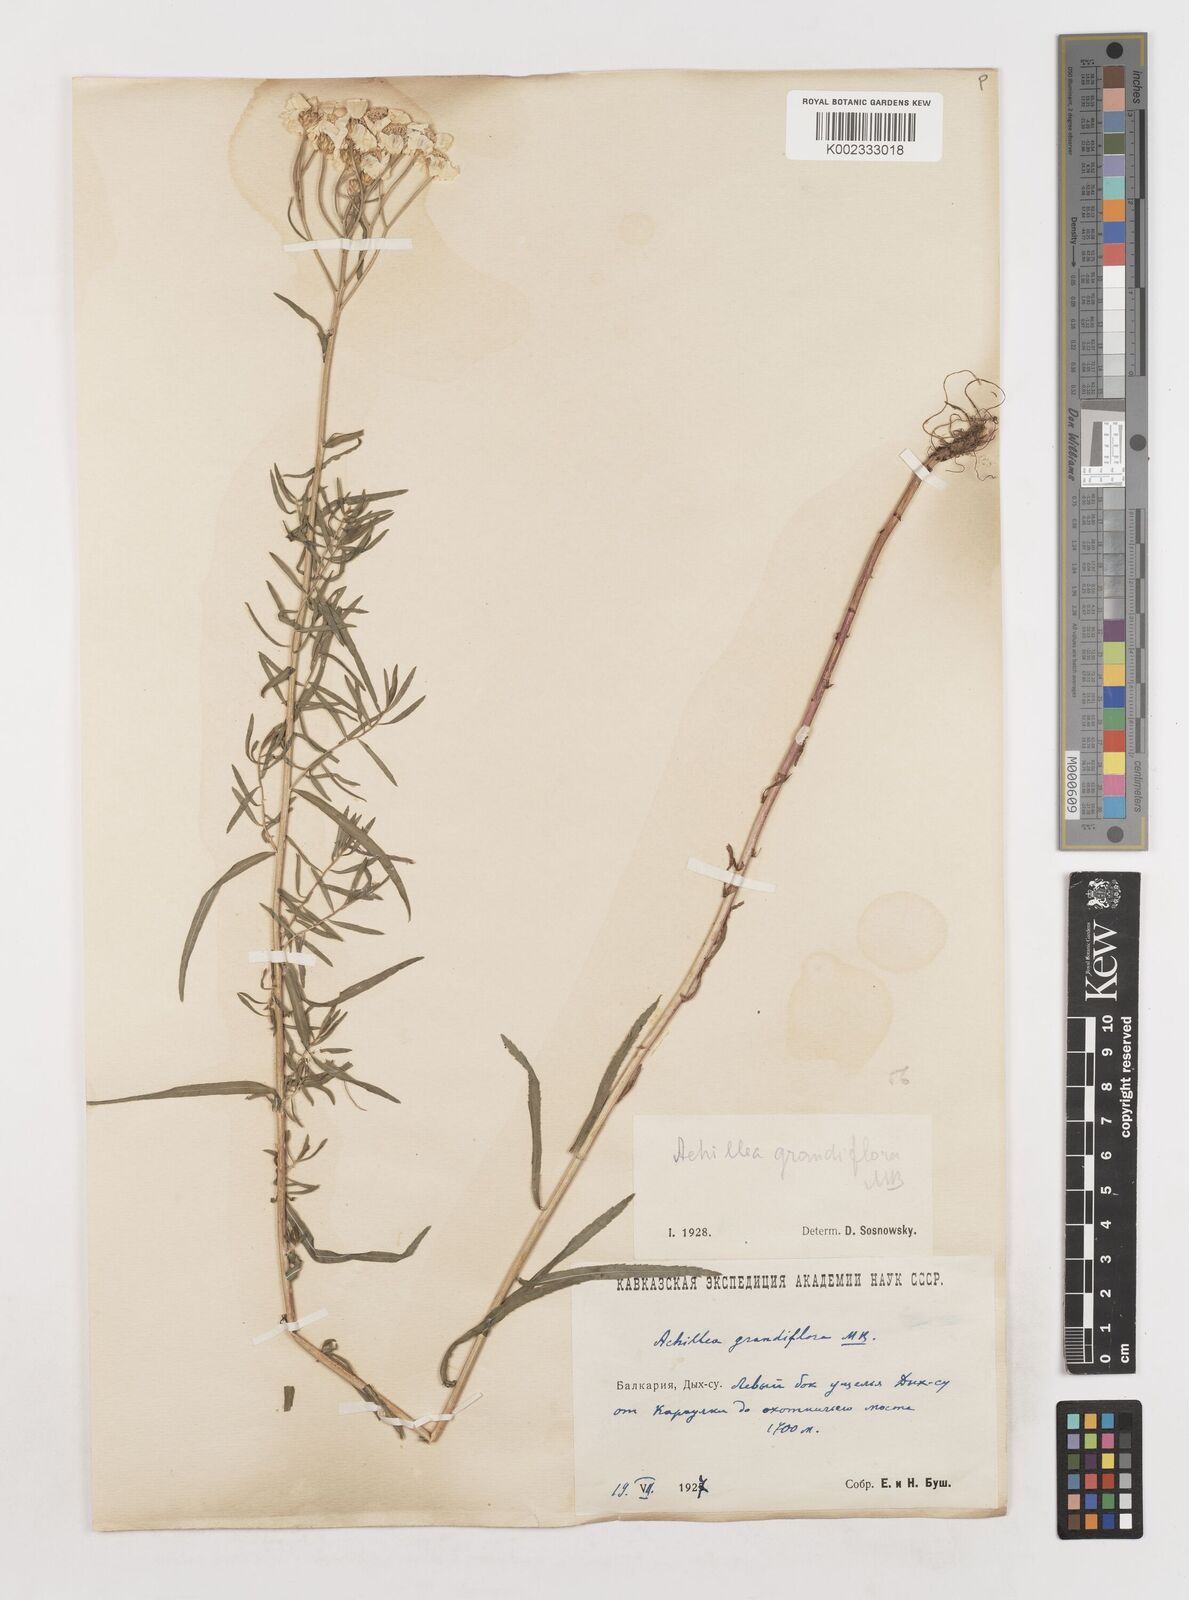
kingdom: Plantae
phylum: Tracheophyta
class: Magnoliopsida
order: Asterales
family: Asteraceae
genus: Achillea
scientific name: Achillea ptarmicifolia
